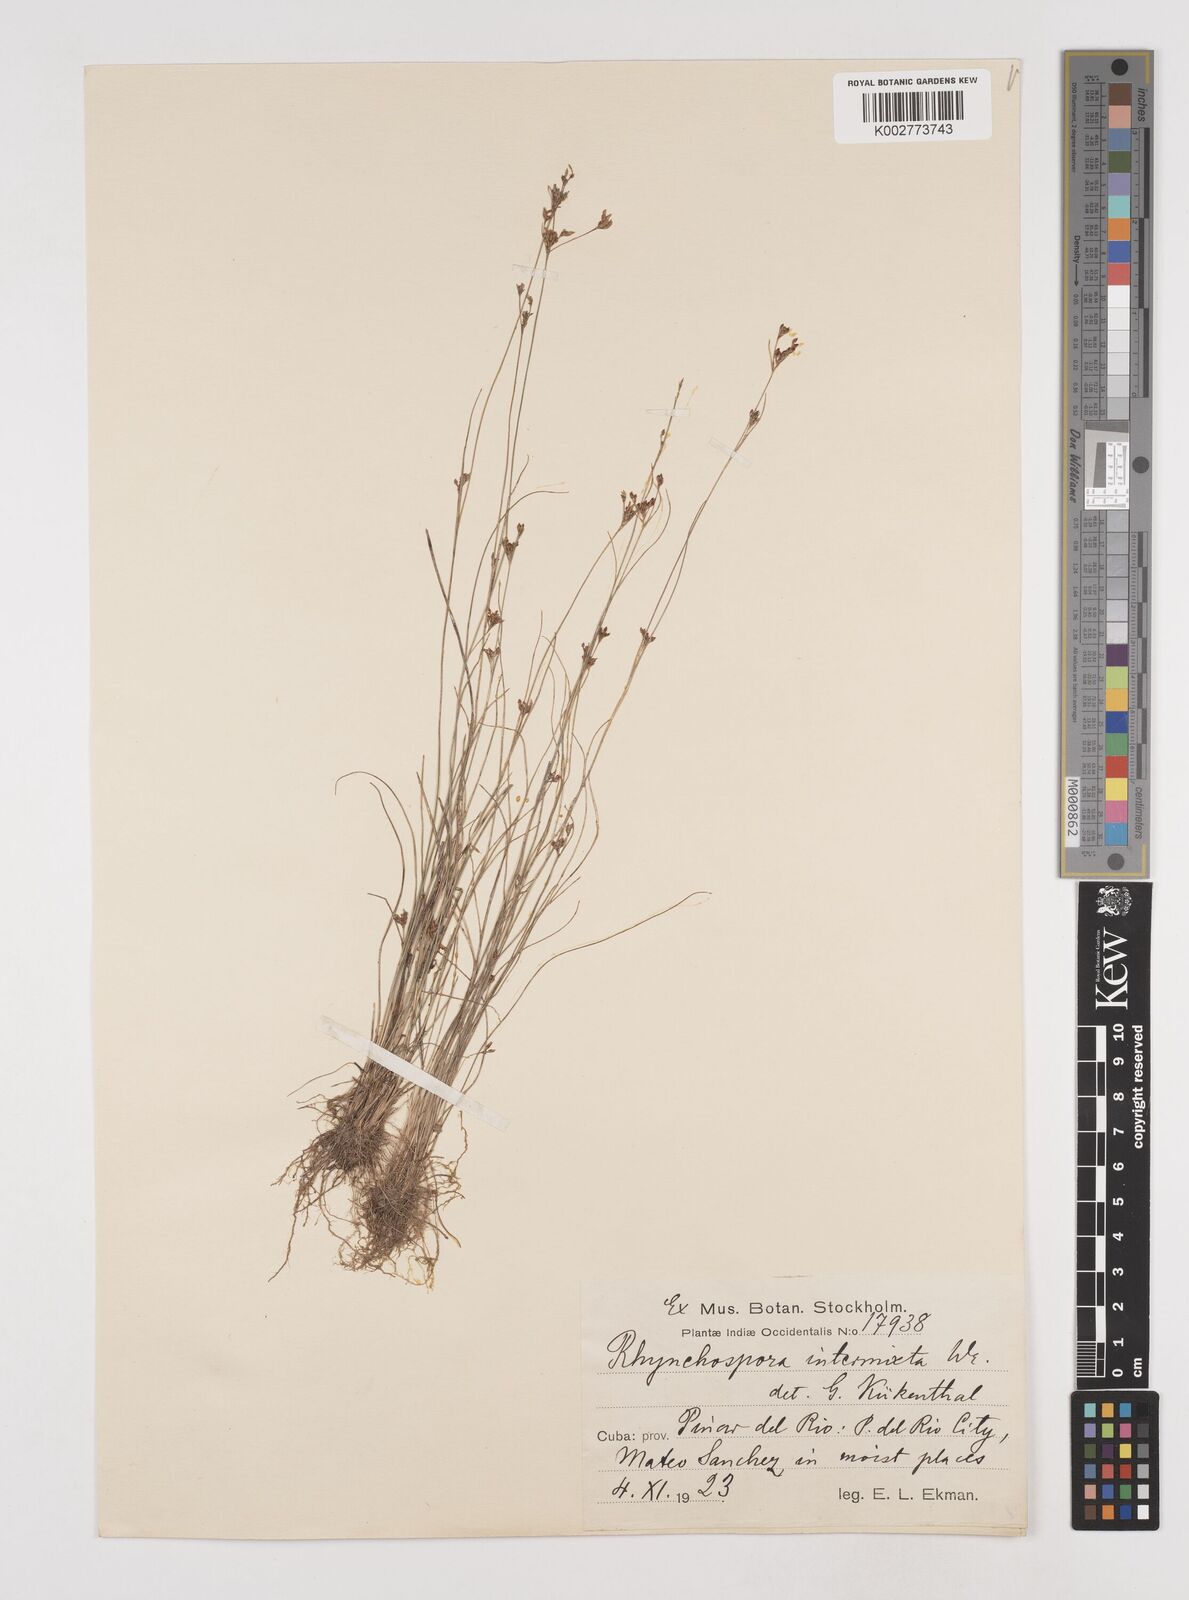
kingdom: Plantae
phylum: Tracheophyta
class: Liliopsida
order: Poales
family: Cyperaceae
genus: Rhynchospora
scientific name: Rhynchospora intermixta
